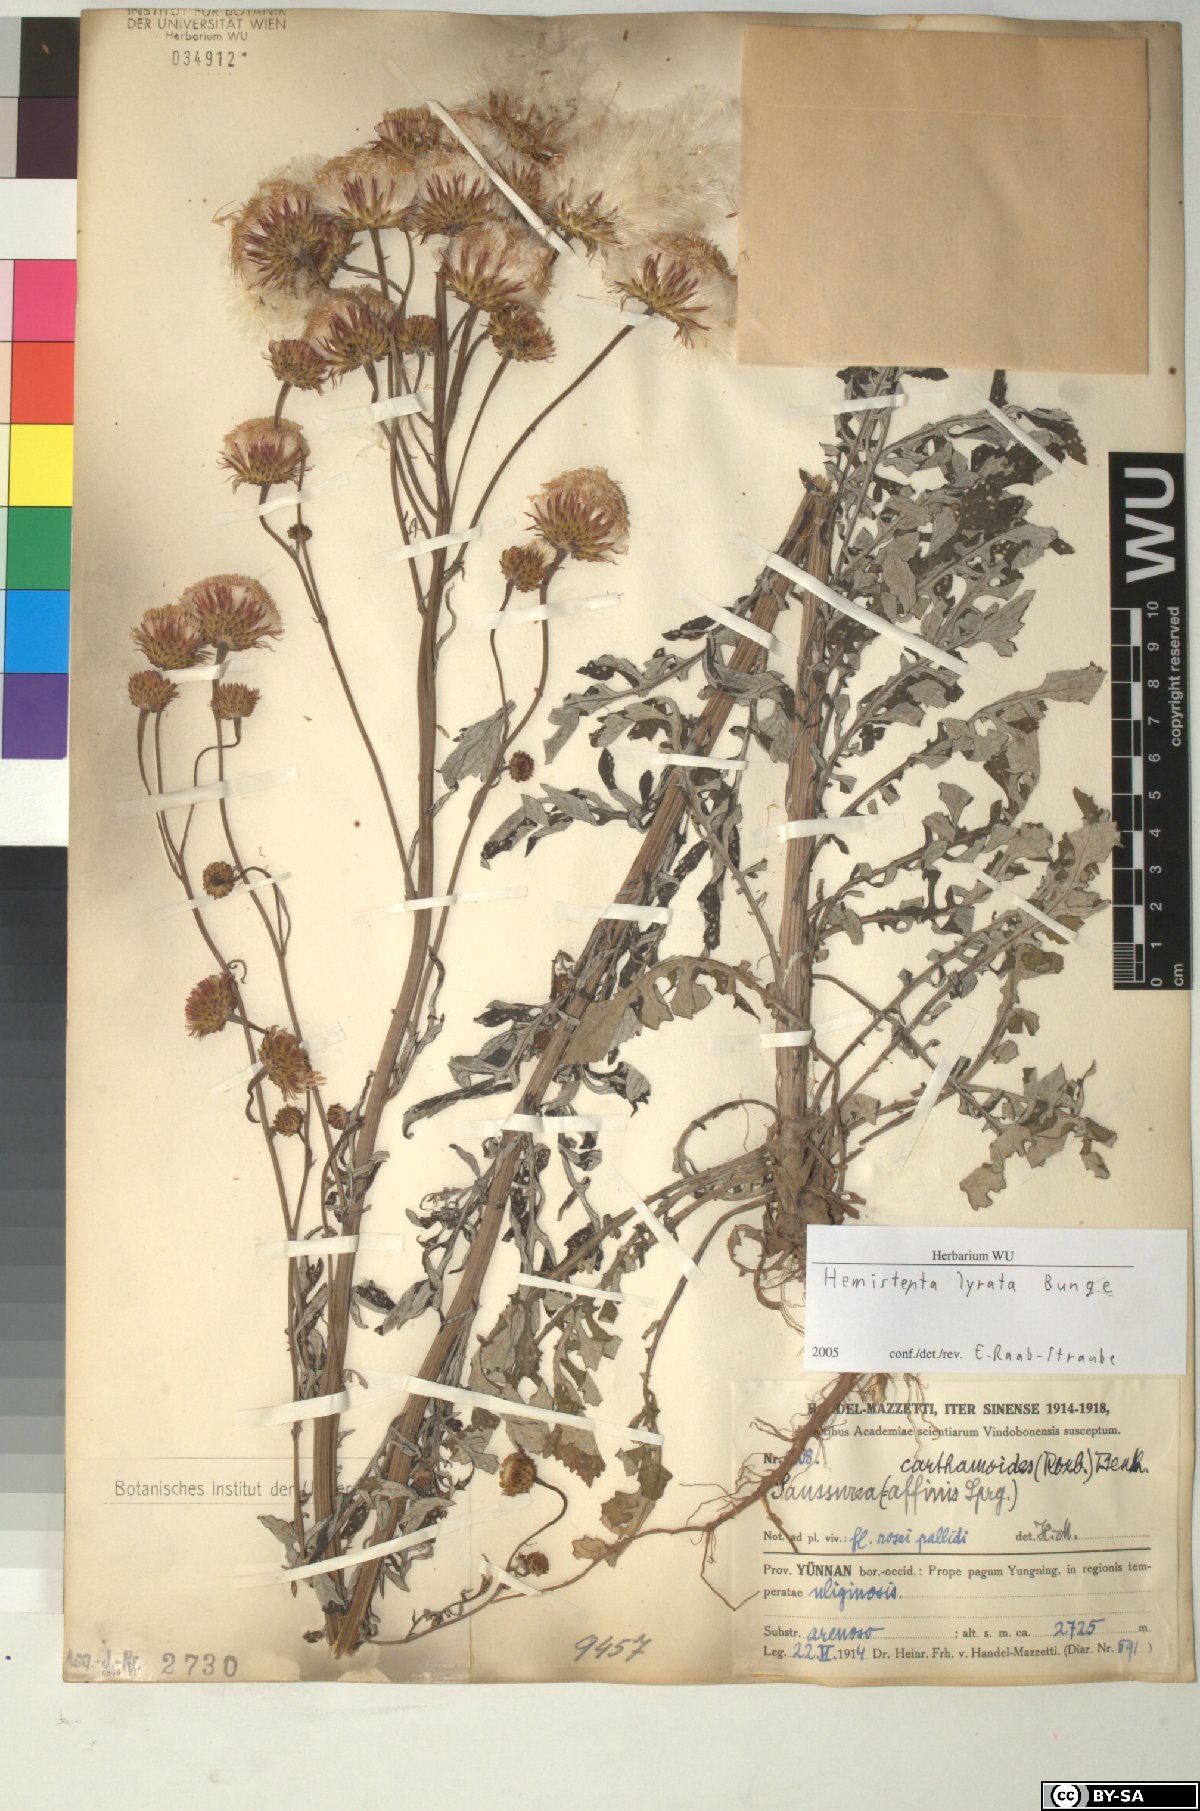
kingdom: Plantae
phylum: Tracheophyta
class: Magnoliopsida
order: Asterales
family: Asteraceae
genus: Saussurea
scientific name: Saussurea Hemisteptia lyrata
